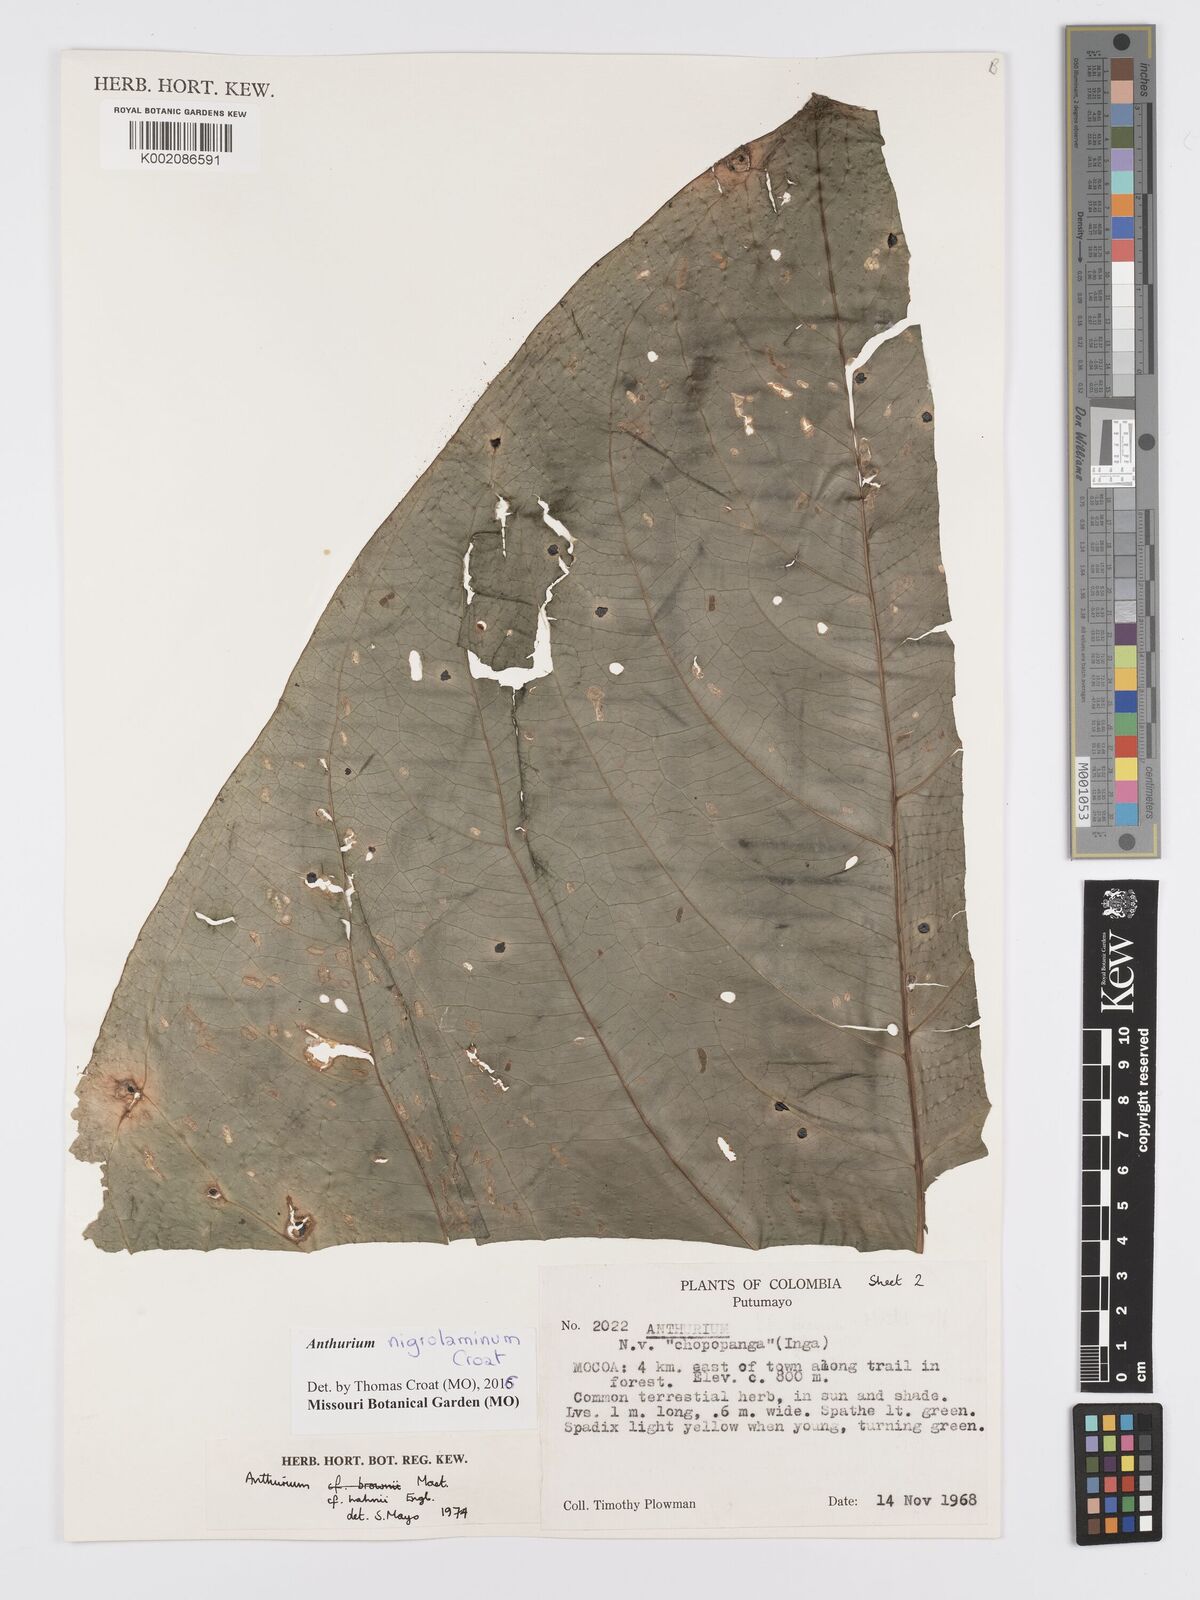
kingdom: Plantae
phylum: Tracheophyta
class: Liliopsida
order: Alismatales
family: Araceae
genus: Anthurium
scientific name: Anthurium nigropunctatum
